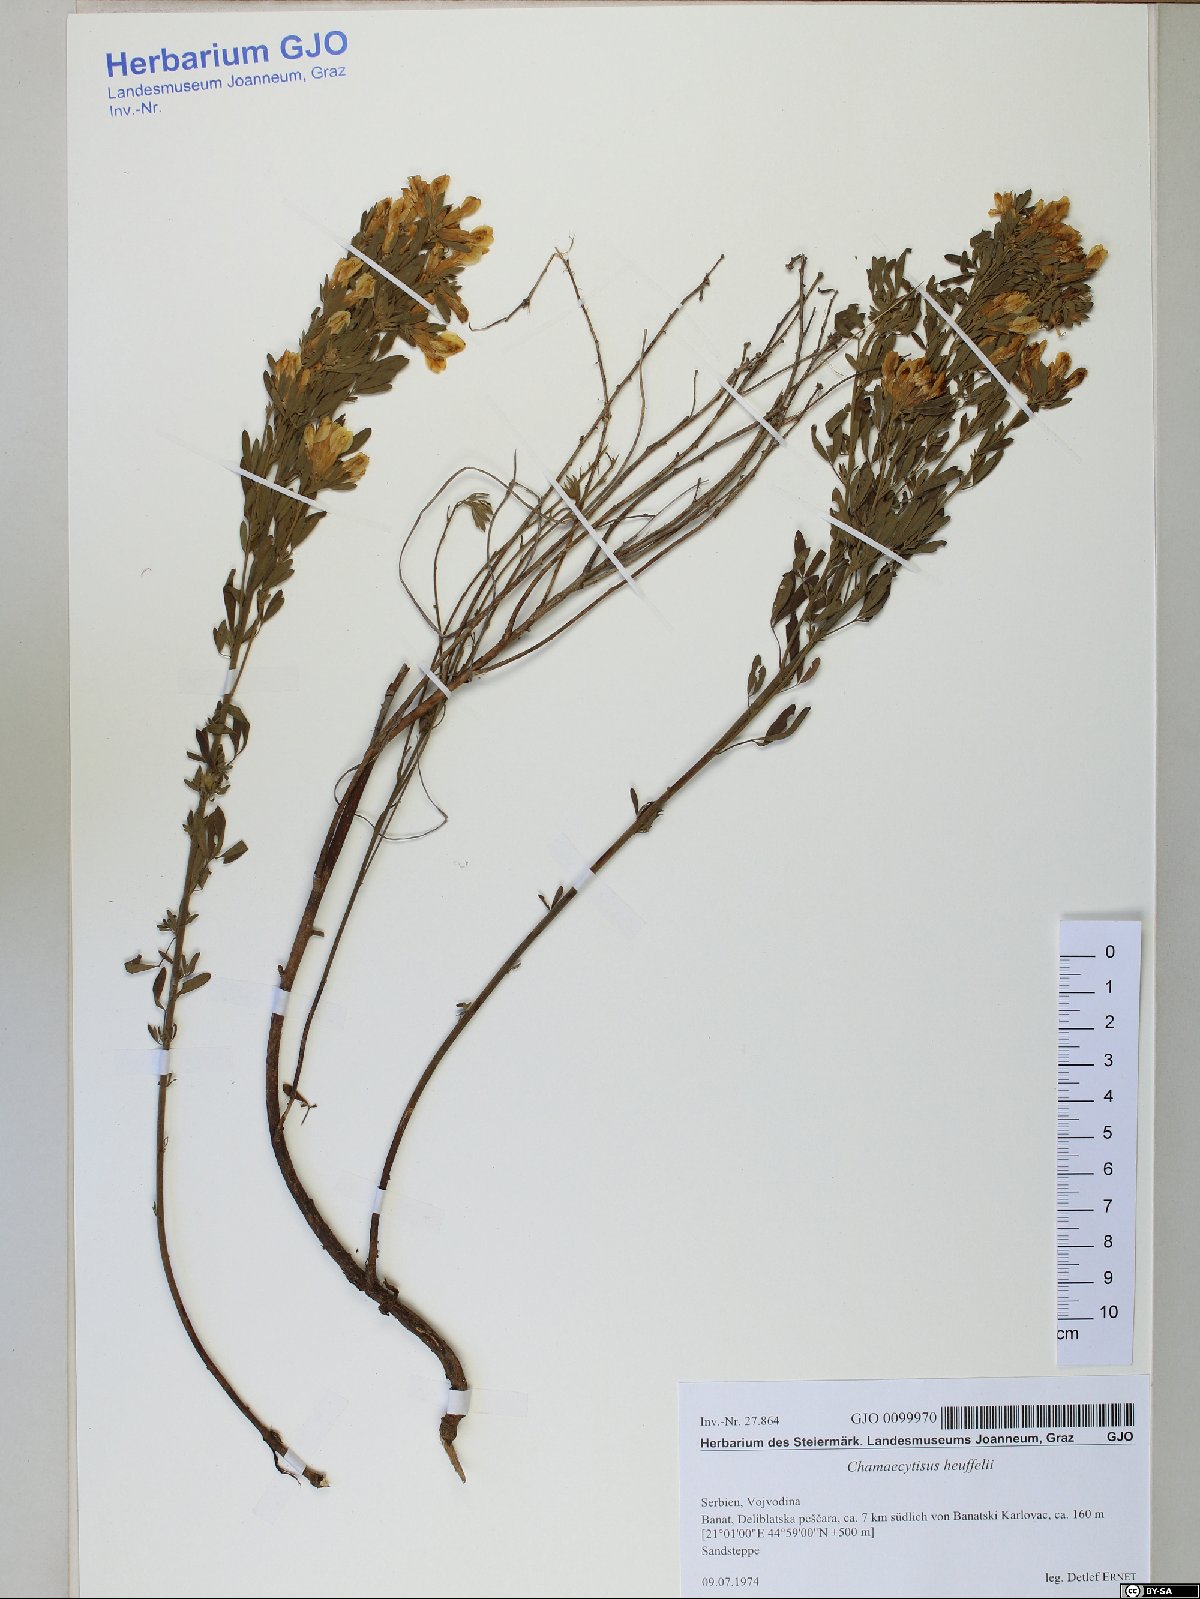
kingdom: Plantae
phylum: Tracheophyta
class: Magnoliopsida
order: Fabales
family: Fabaceae
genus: Chamaecytisus
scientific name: Chamaecytisus heuffelii
